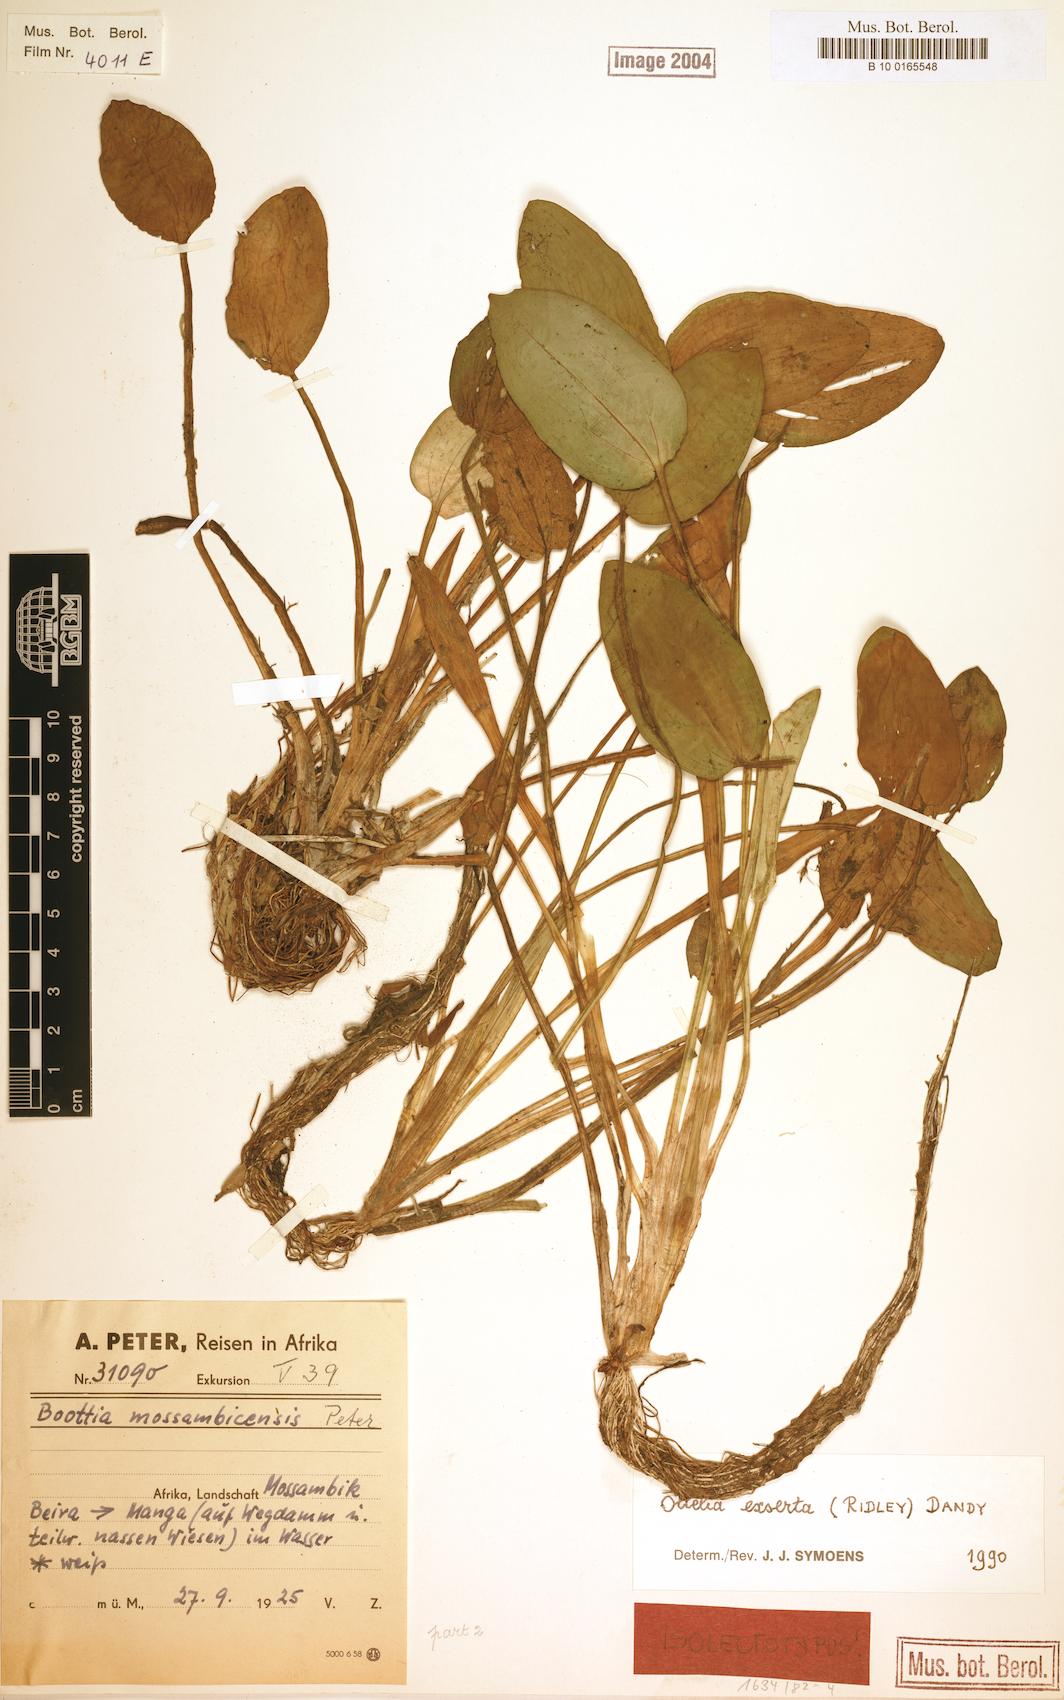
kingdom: Plantae
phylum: Tracheophyta
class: Liliopsida
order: Alismatales
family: Hydrocharitaceae
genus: Ottelia
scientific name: Ottelia exserta
